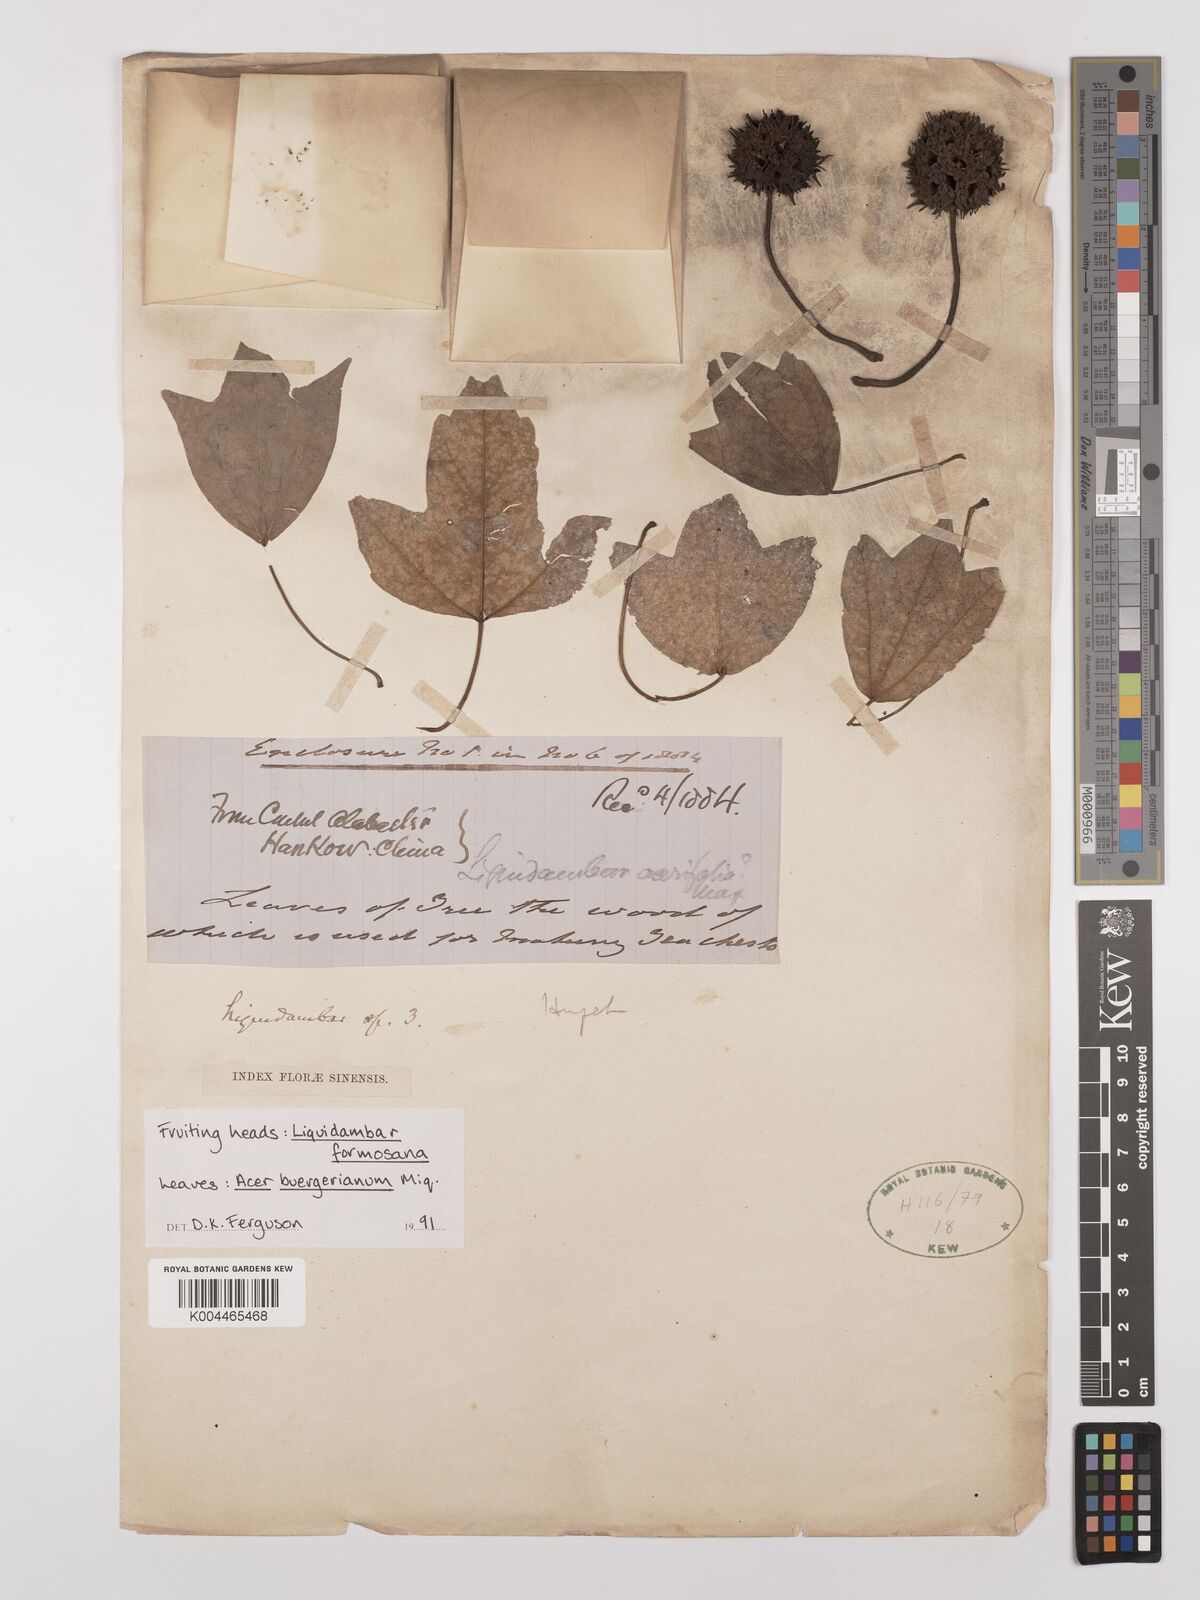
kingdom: Plantae
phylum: Tracheophyta
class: Magnoliopsida
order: Saxifragales
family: Altingiaceae
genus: Liquidambar
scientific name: Liquidambar formosana
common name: Chinese sweet gum
